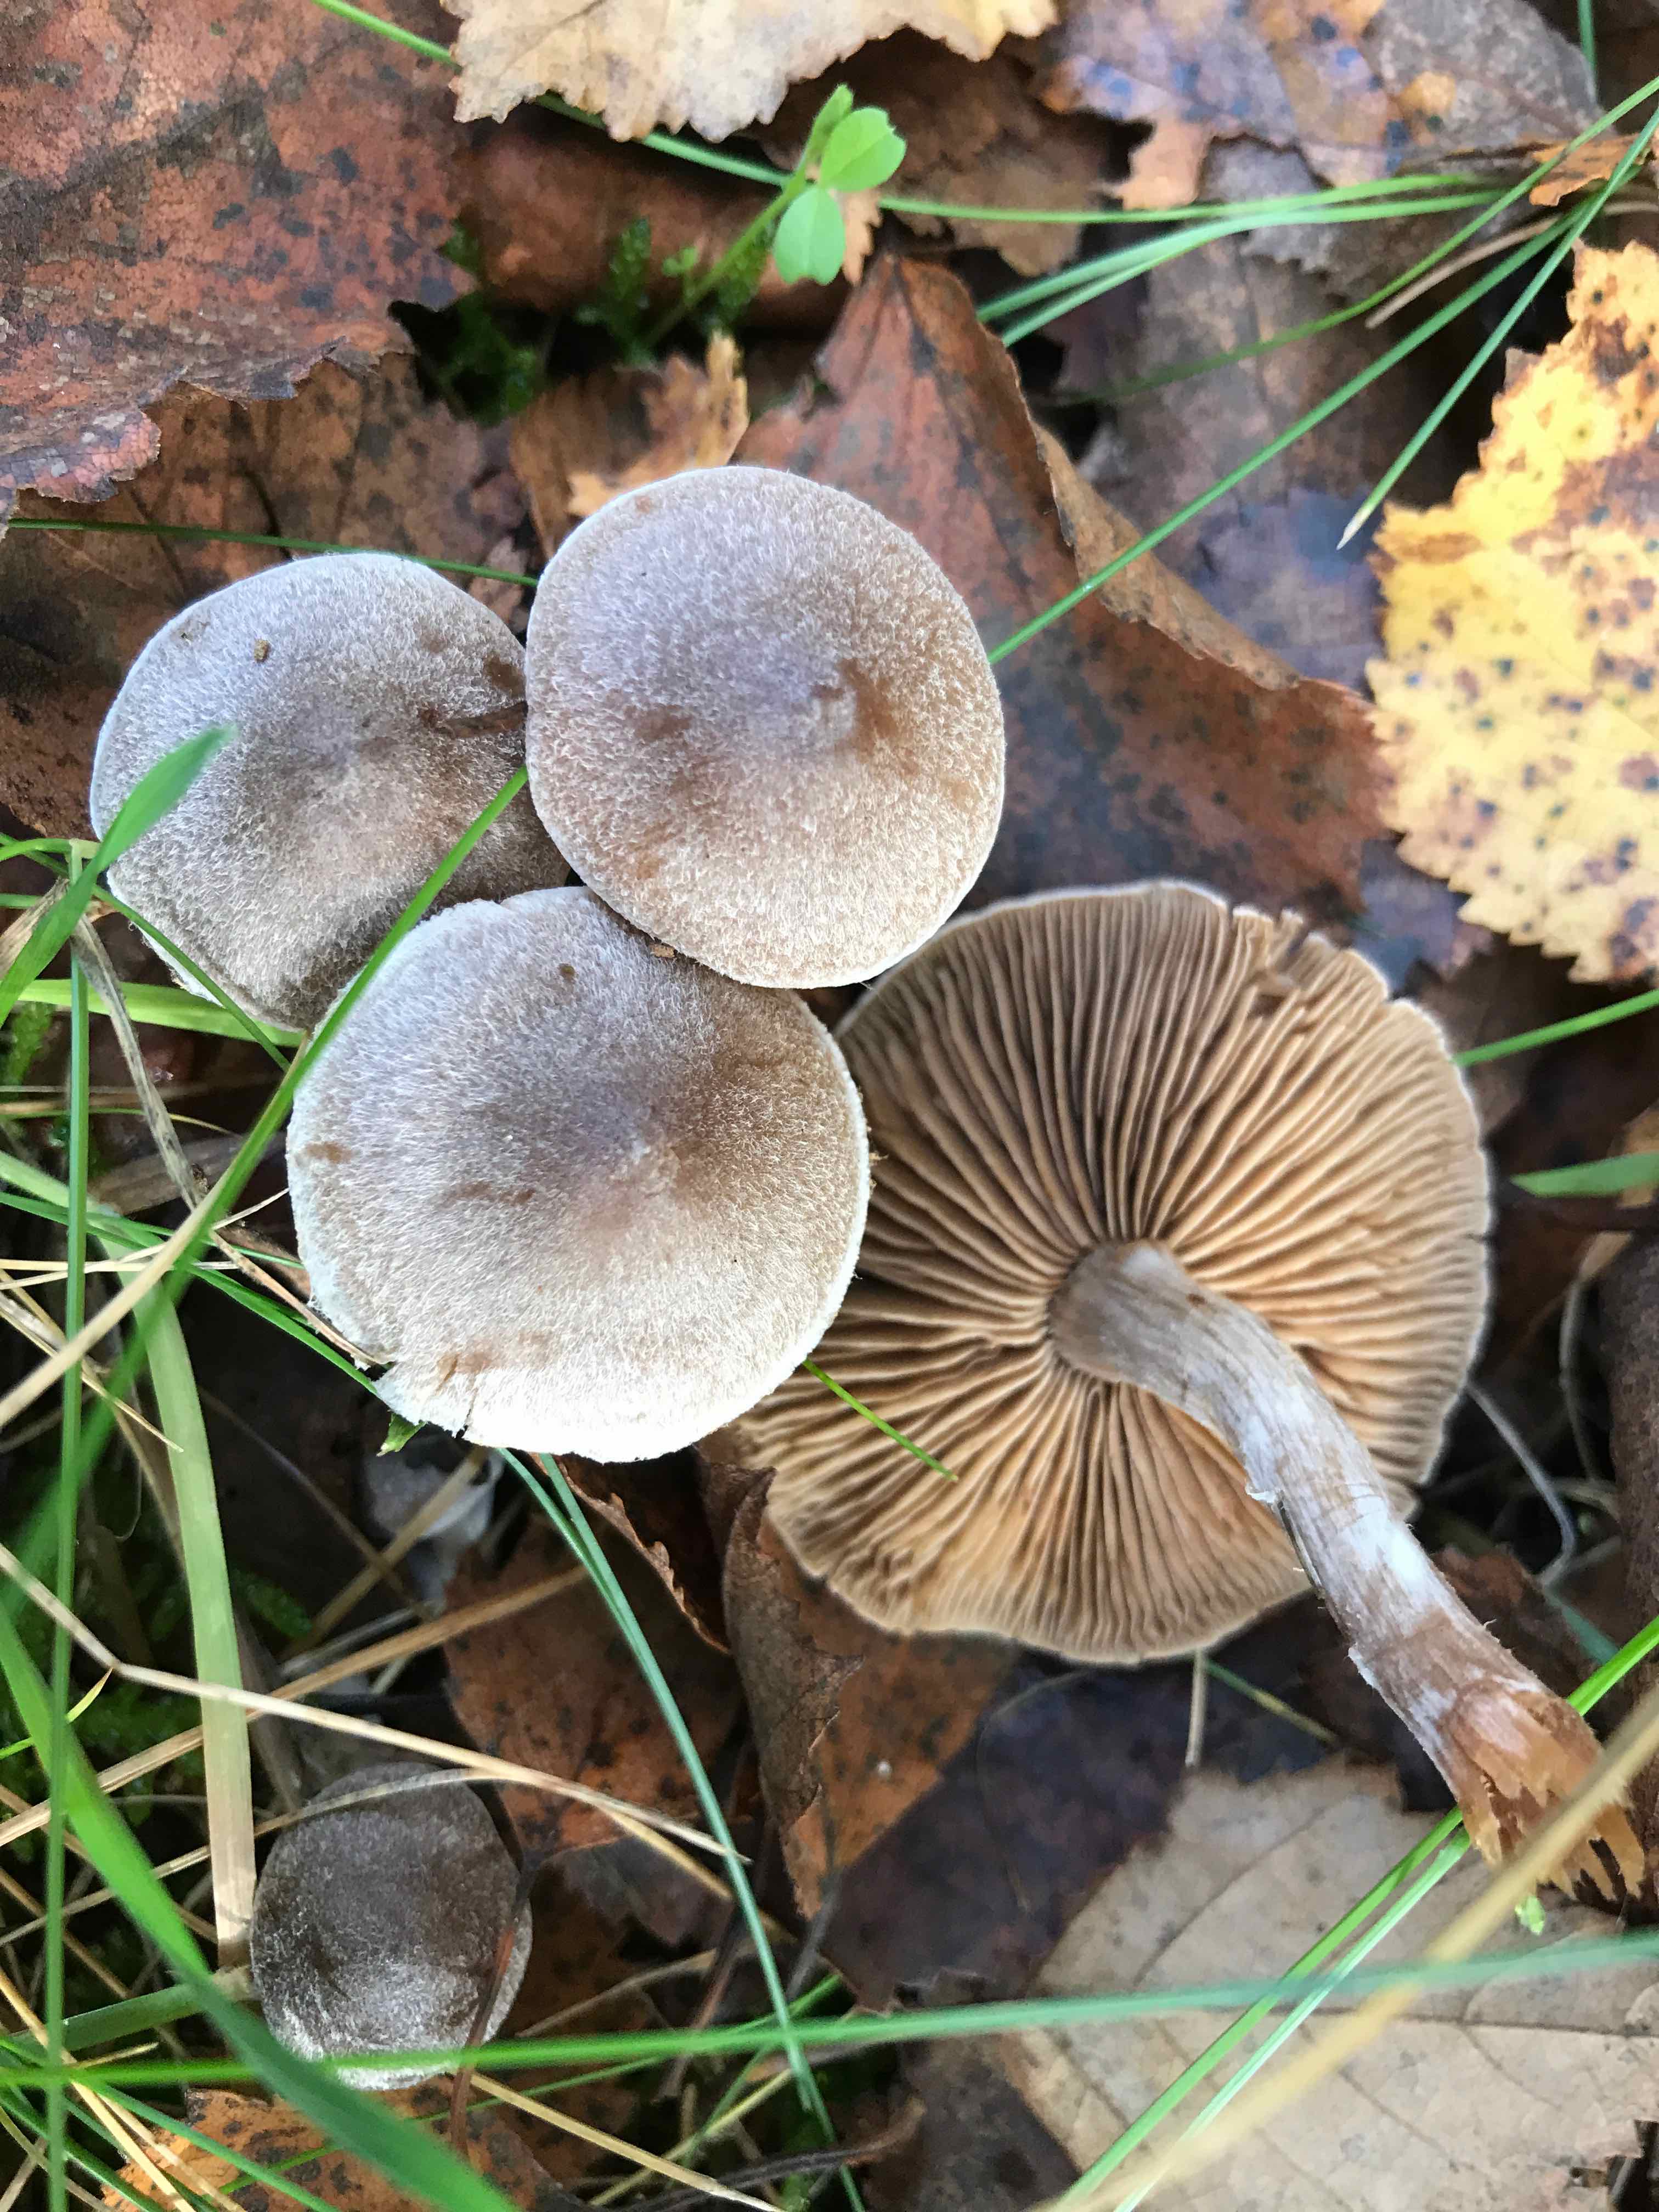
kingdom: Fungi
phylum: Basidiomycota
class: Agaricomycetes
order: Agaricales
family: Cortinariaceae
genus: Cortinarius
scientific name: Cortinarius hemitrichus
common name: hvidfnugget slørhat
